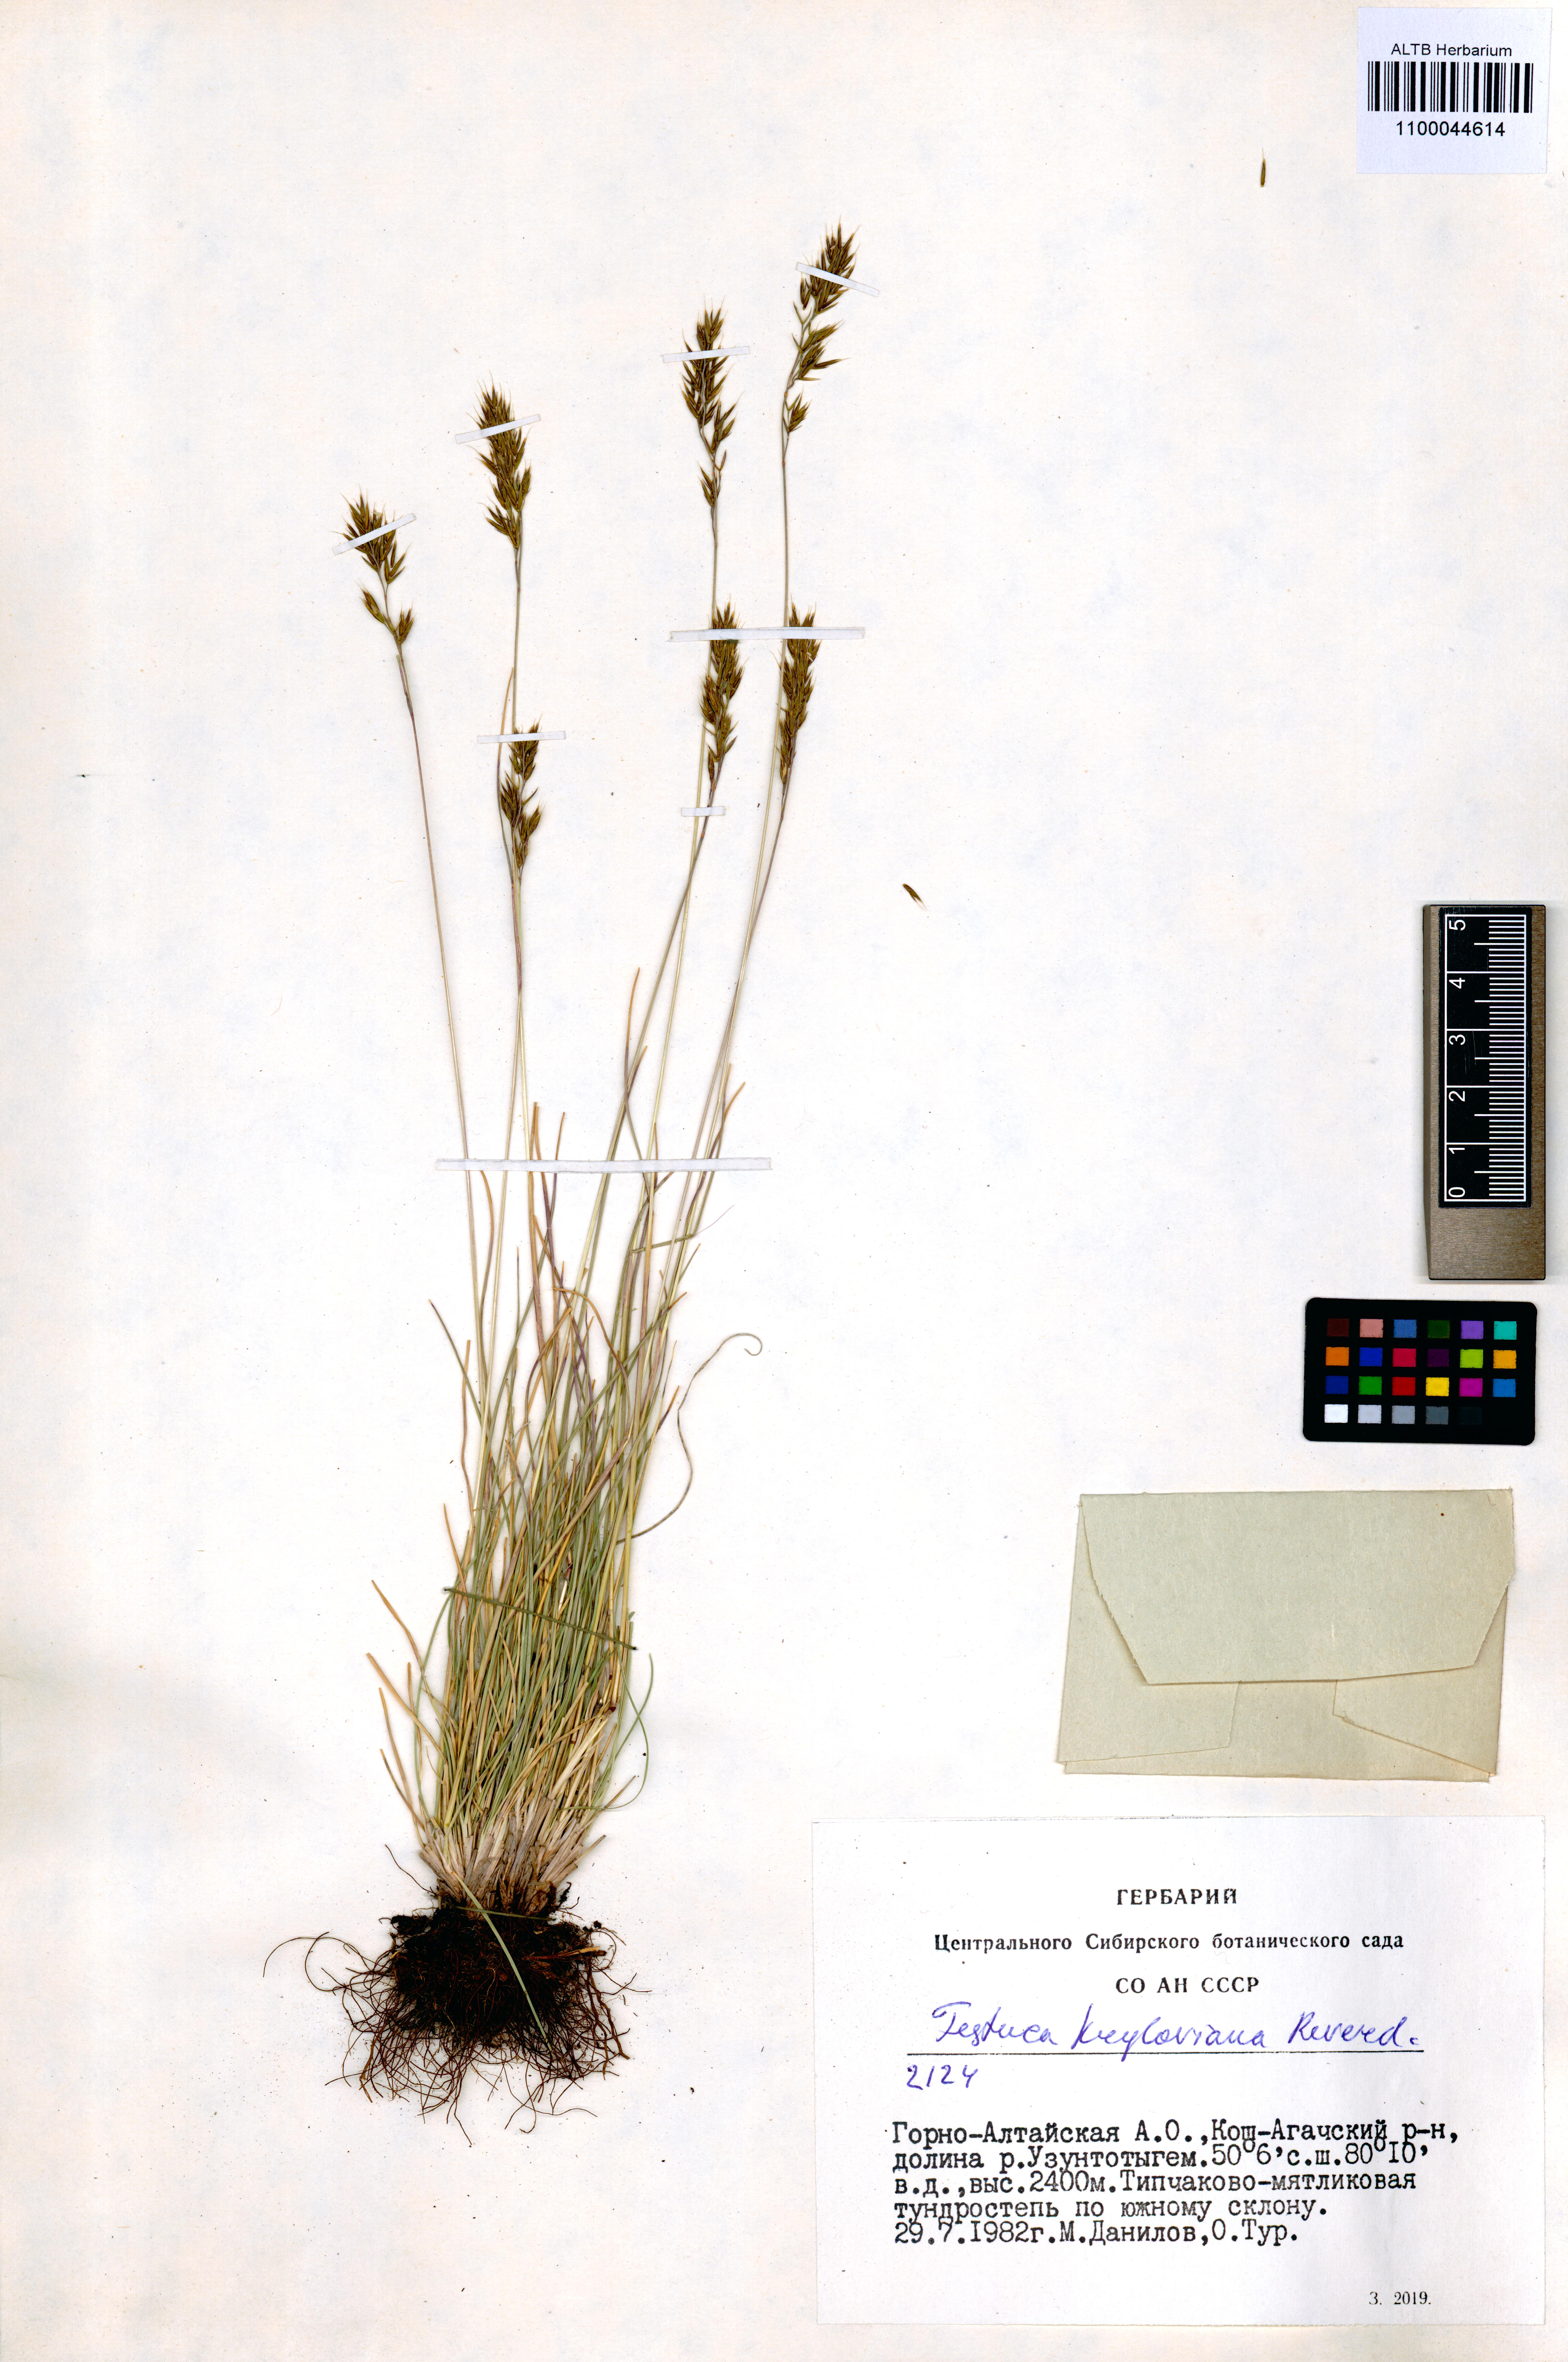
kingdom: Plantae
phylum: Tracheophyta
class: Liliopsida
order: Poales
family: Poaceae
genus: Festuca
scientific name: Festuca kryloviana
